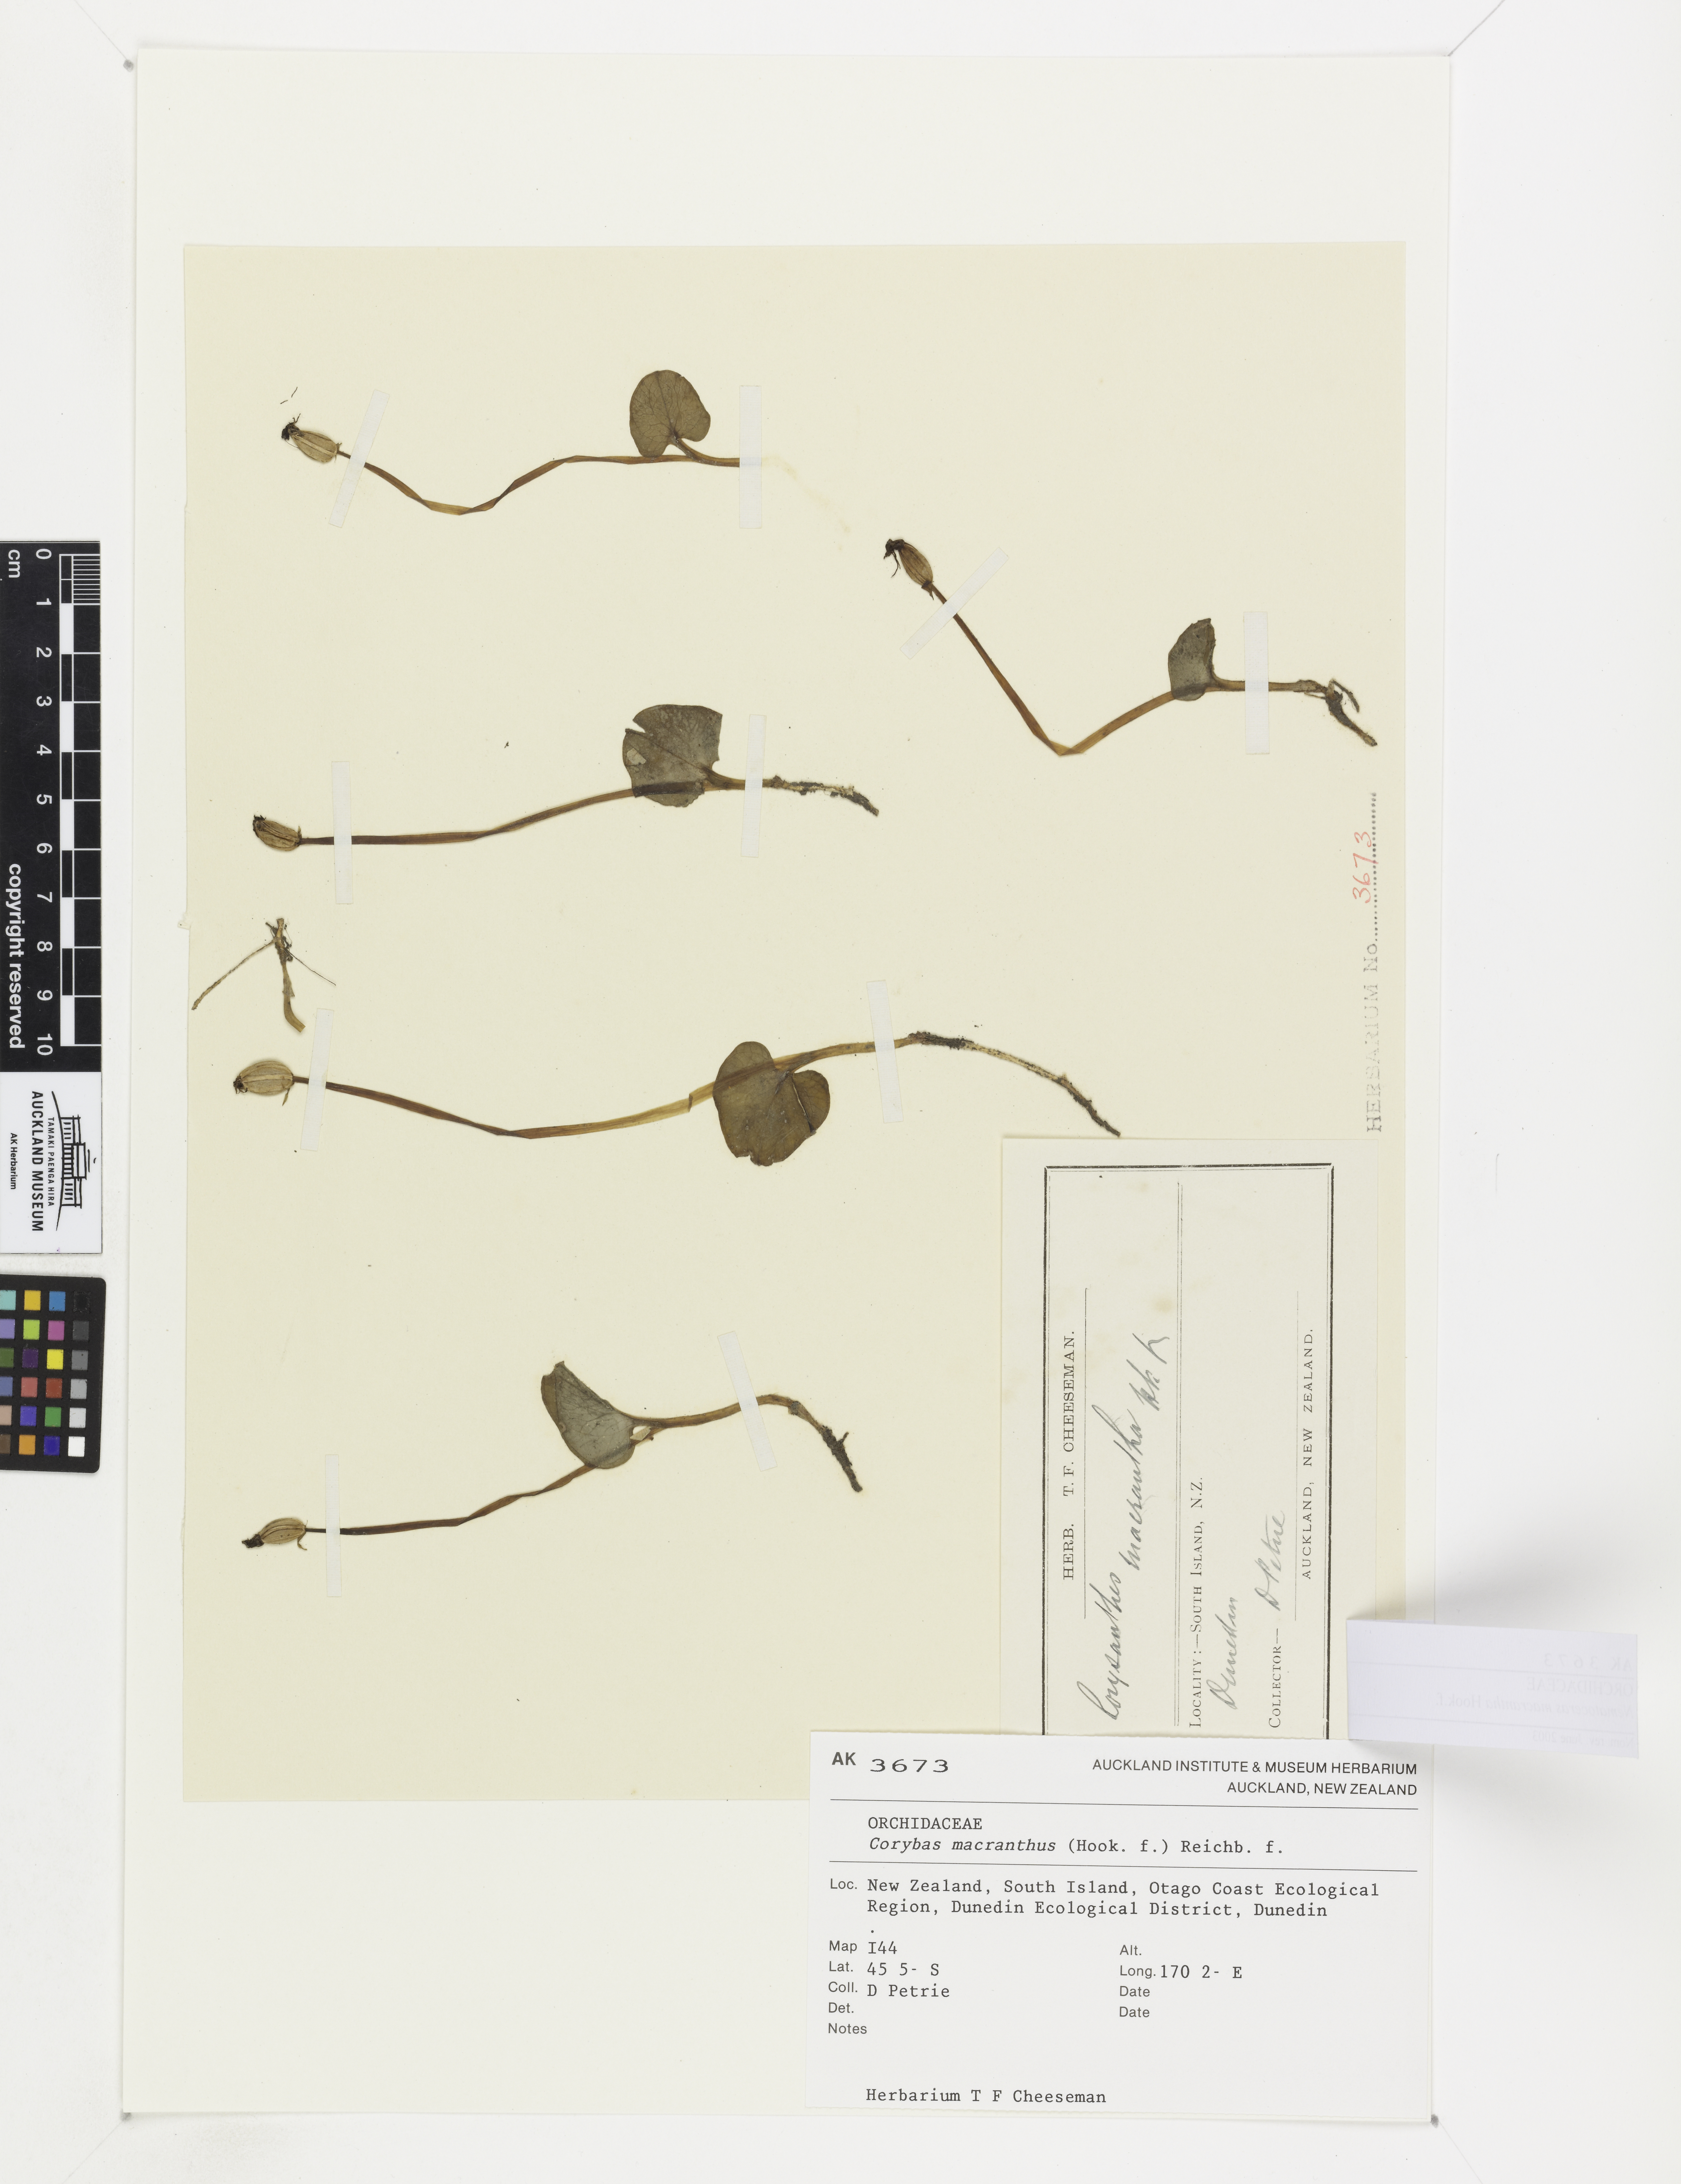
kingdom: Plantae
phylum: Tracheophyta
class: Liliopsida
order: Asparagales
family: Orchidaceae
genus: Corybas
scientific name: Corybas macranthus
